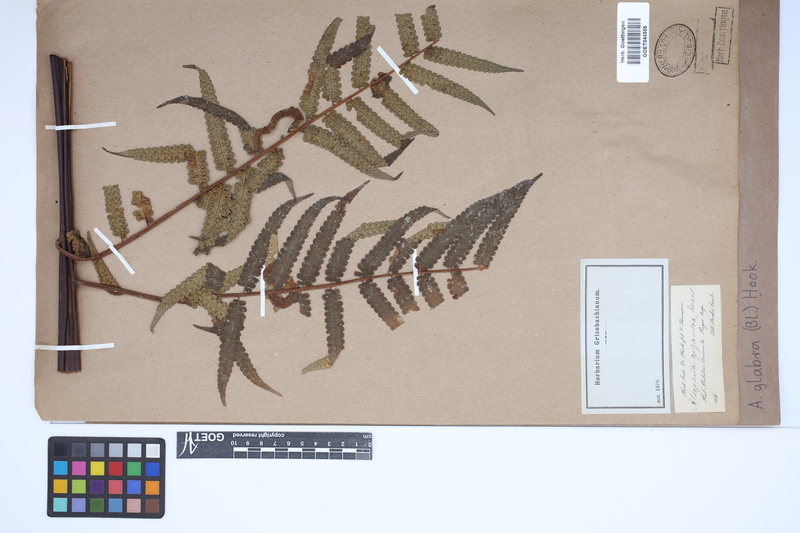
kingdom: Plantae
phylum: Tracheophyta
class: Polypodiopsida
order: Cyatheales
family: Cyatheaceae
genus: Gymnosphaera
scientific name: Gymnosphaera glabra
